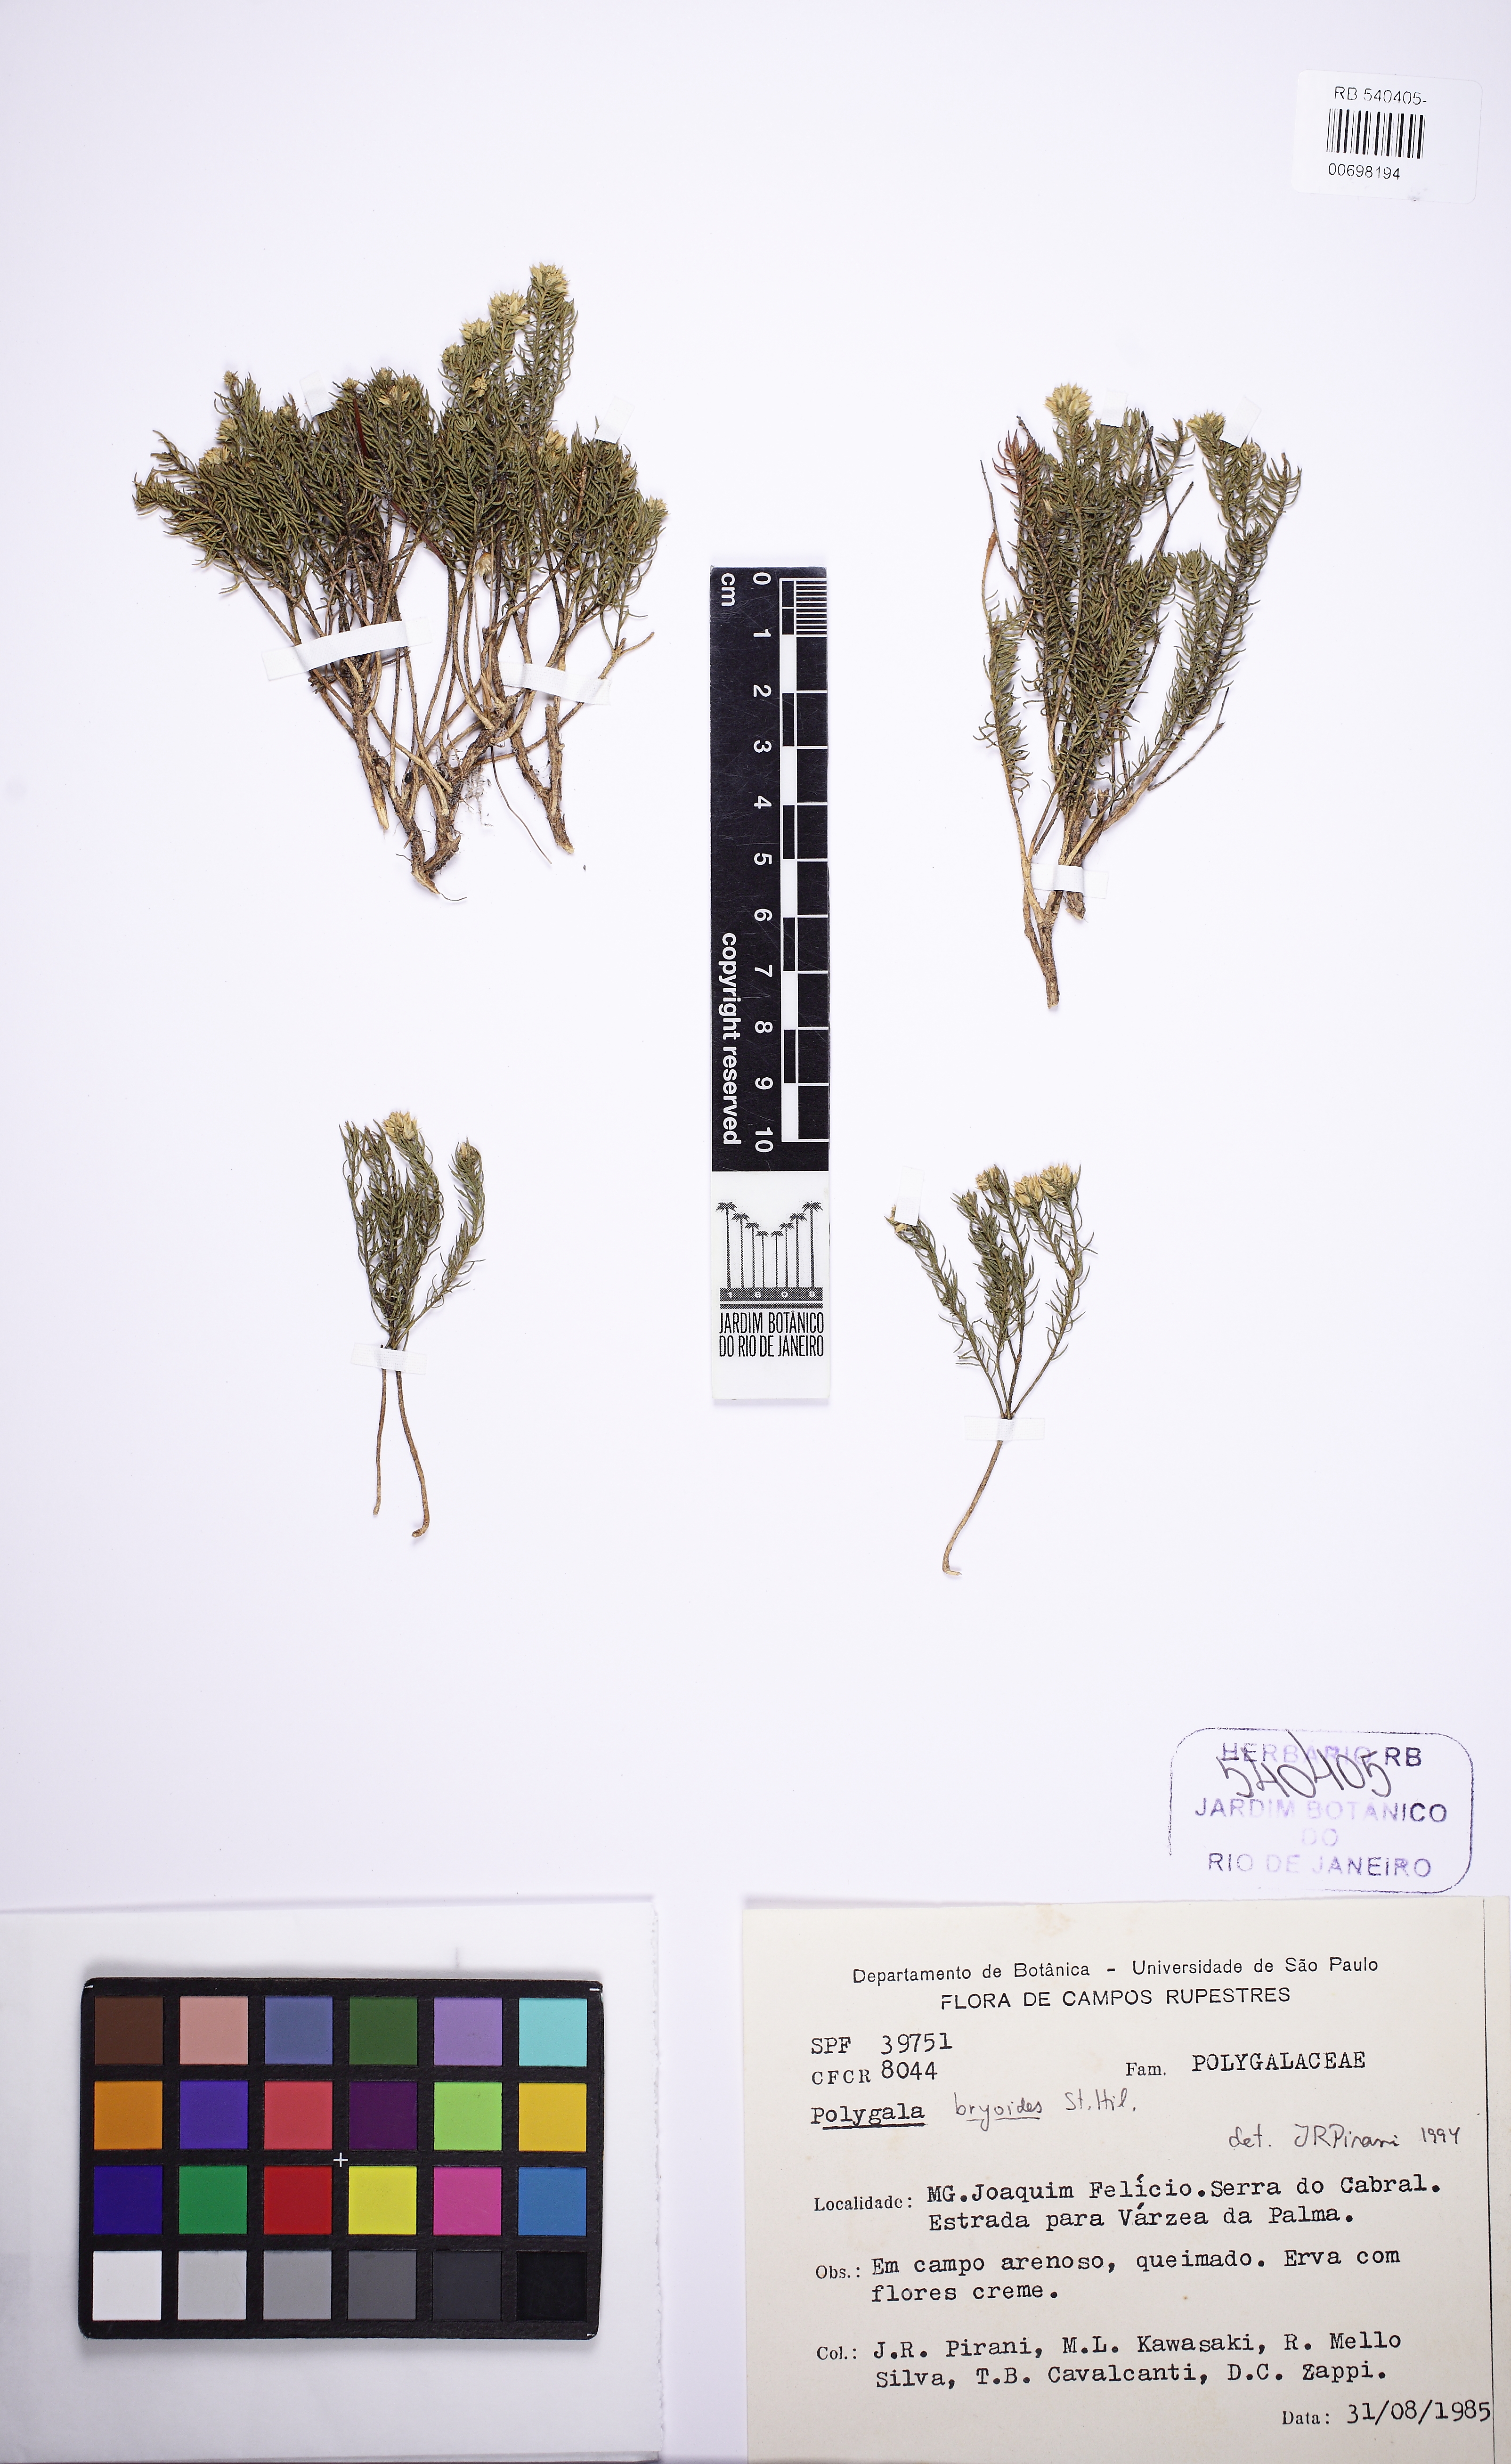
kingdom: Plantae
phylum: Tracheophyta
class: Magnoliopsida
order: Fabales
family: Polygalaceae
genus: Polygala
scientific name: Polygala bryoides
